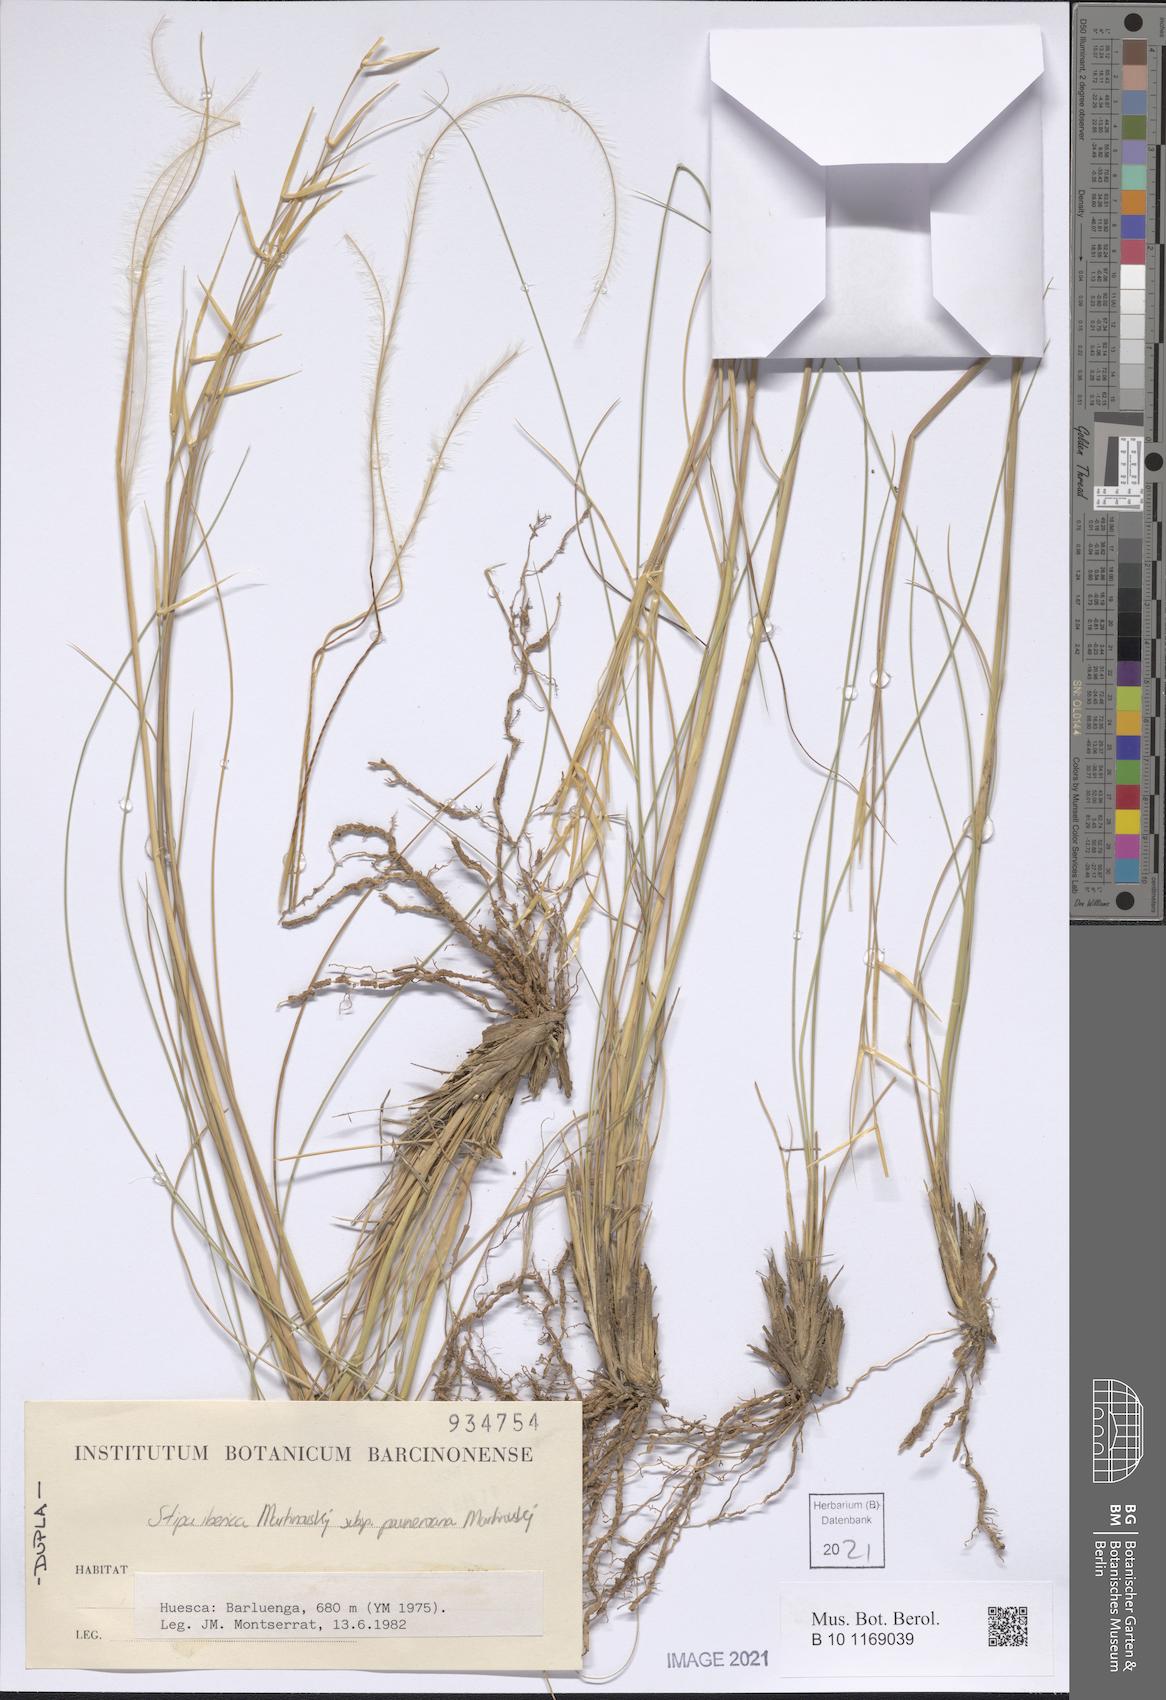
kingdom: Plantae
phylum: Tracheophyta
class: Liliopsida
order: Poales
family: Poaceae
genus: Stipa
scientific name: Stipa iberica
